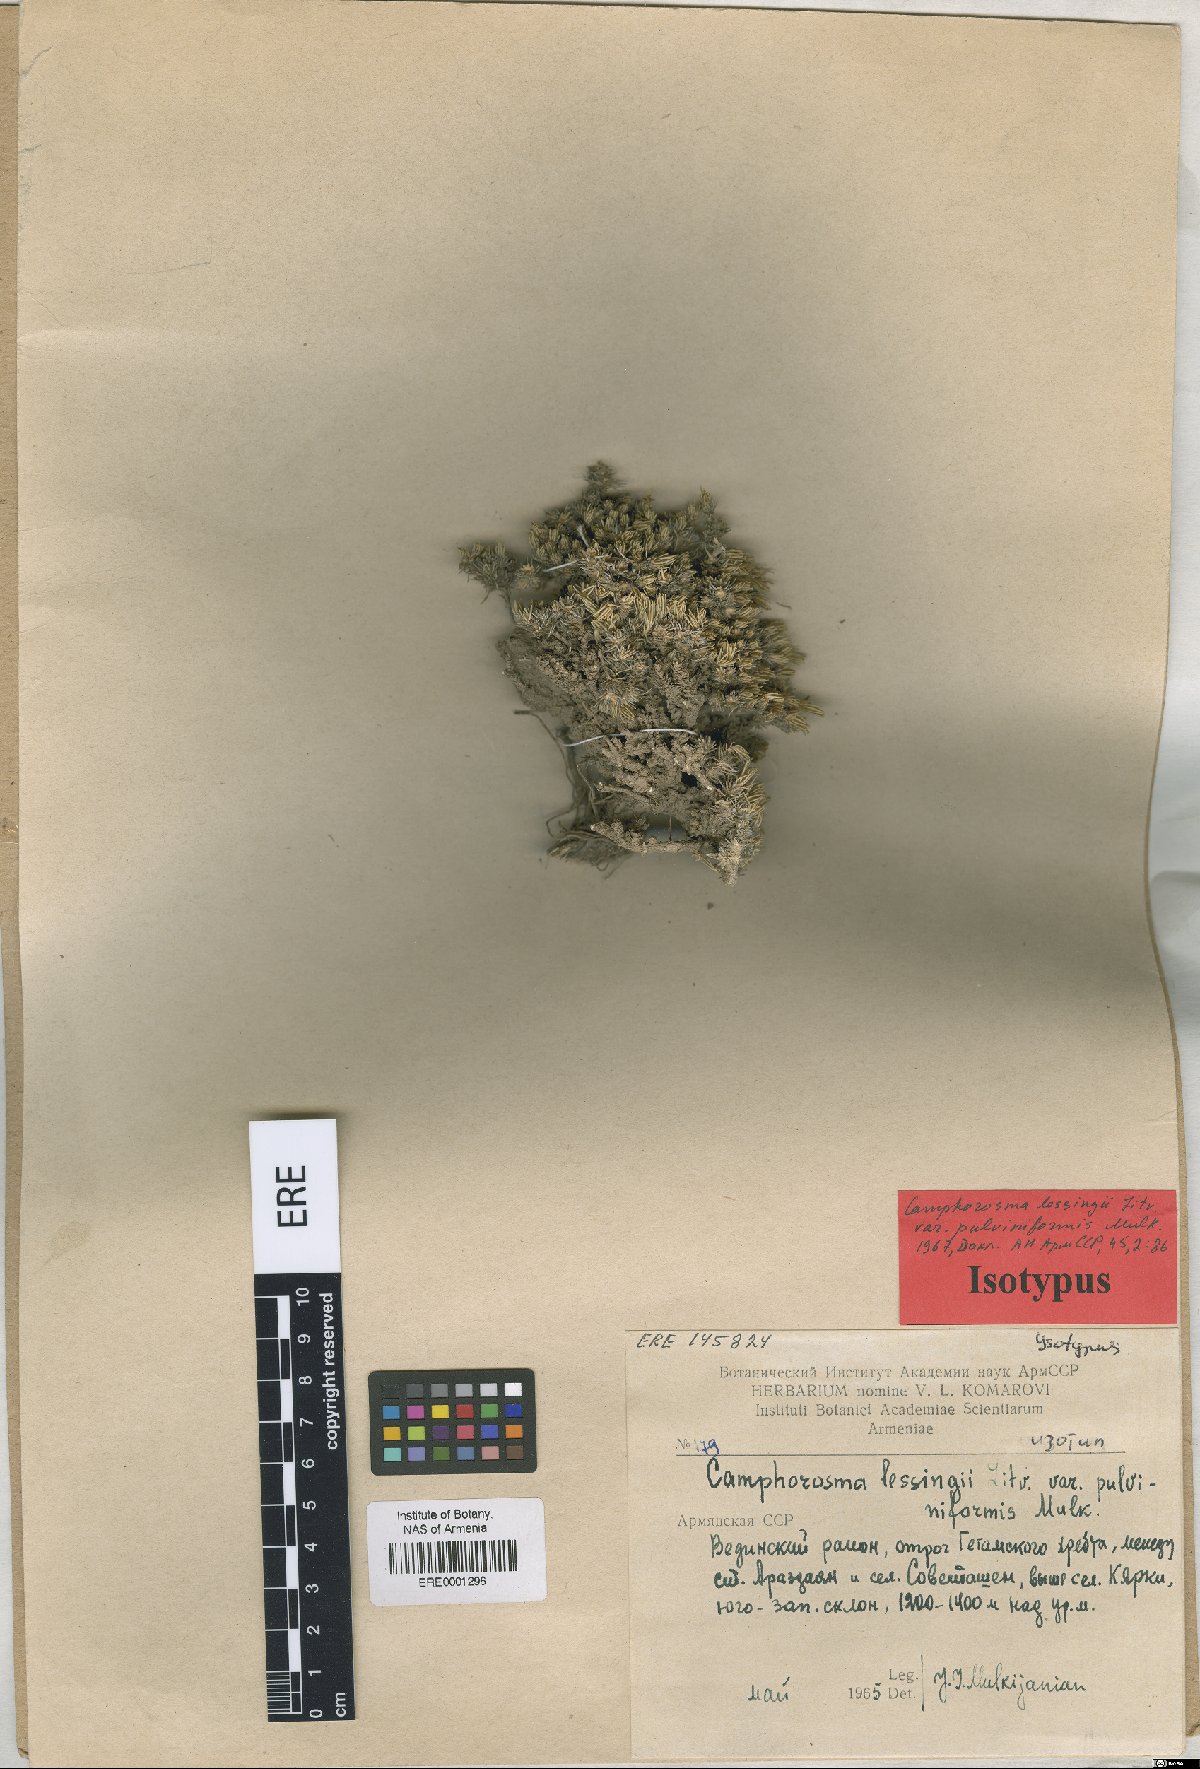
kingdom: Plantae
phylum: Tracheophyta
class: Magnoliopsida
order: Caryophyllales
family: Amaranthaceae
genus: Camphorosma
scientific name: Camphorosma monspeliaca
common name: Camphorfume
